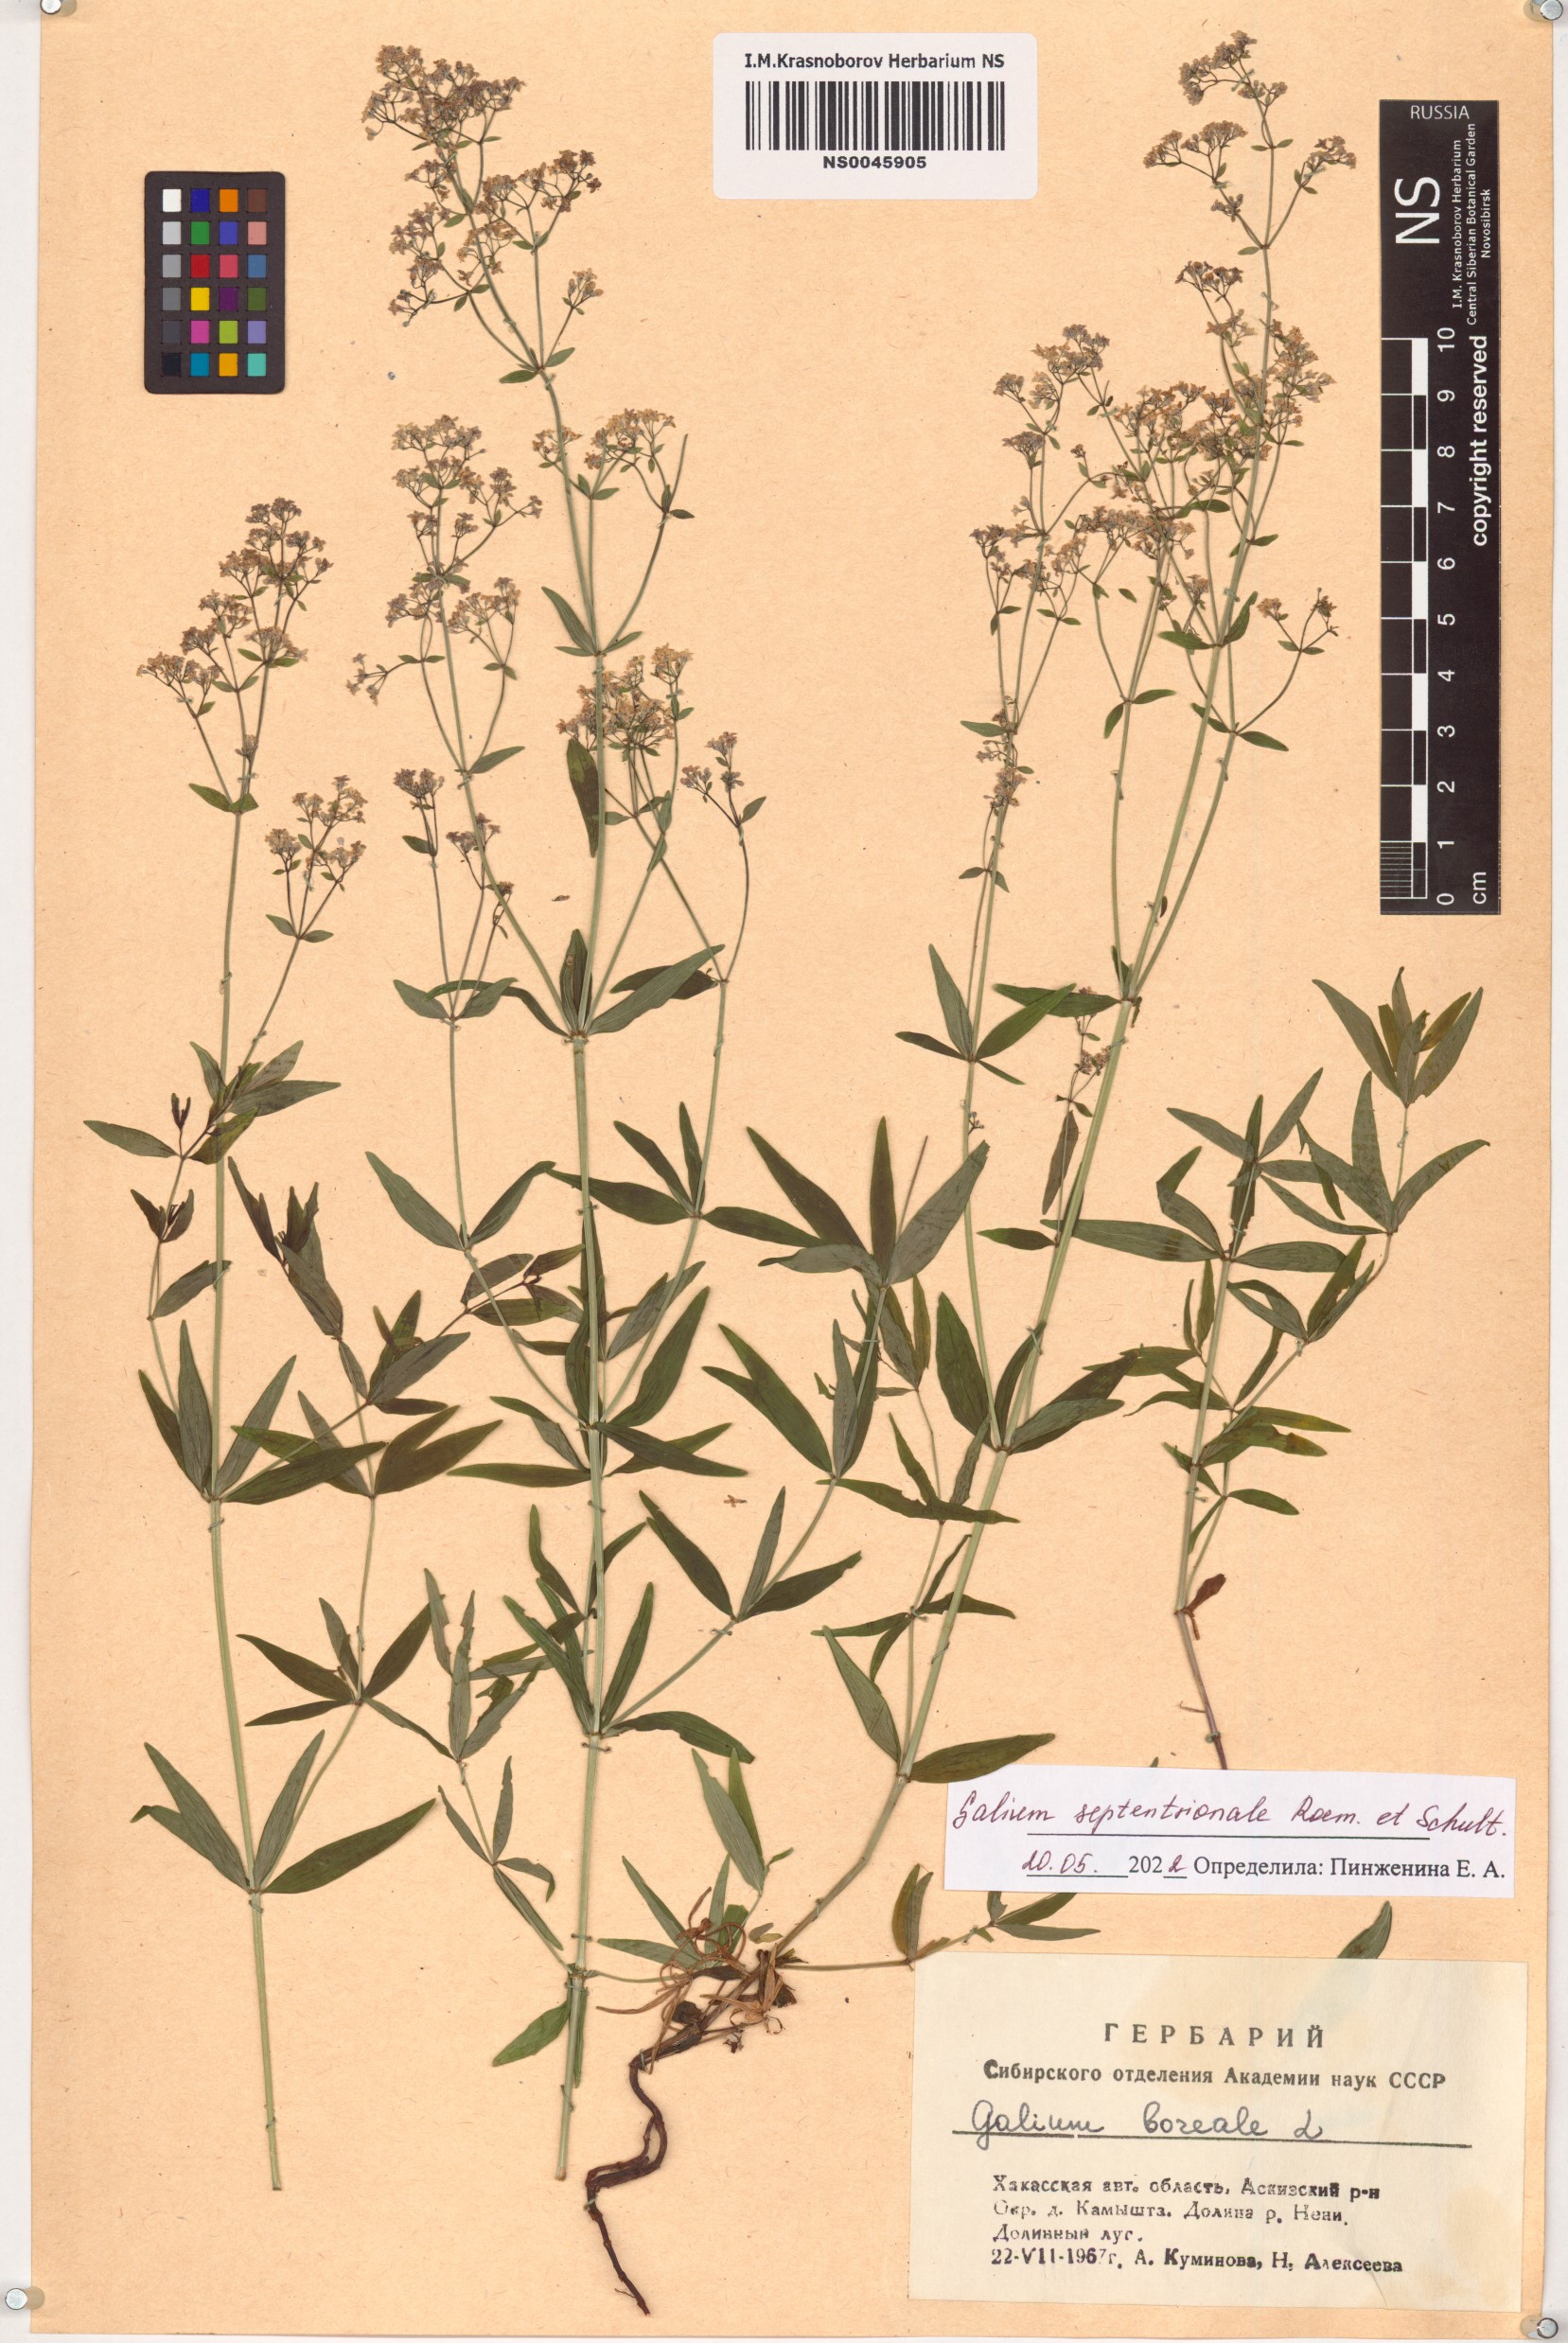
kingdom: Plantae
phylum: Tracheophyta
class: Magnoliopsida
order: Gentianales
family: Rubiaceae
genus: Galium
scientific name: Galium boreale
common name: Northern bedstraw
